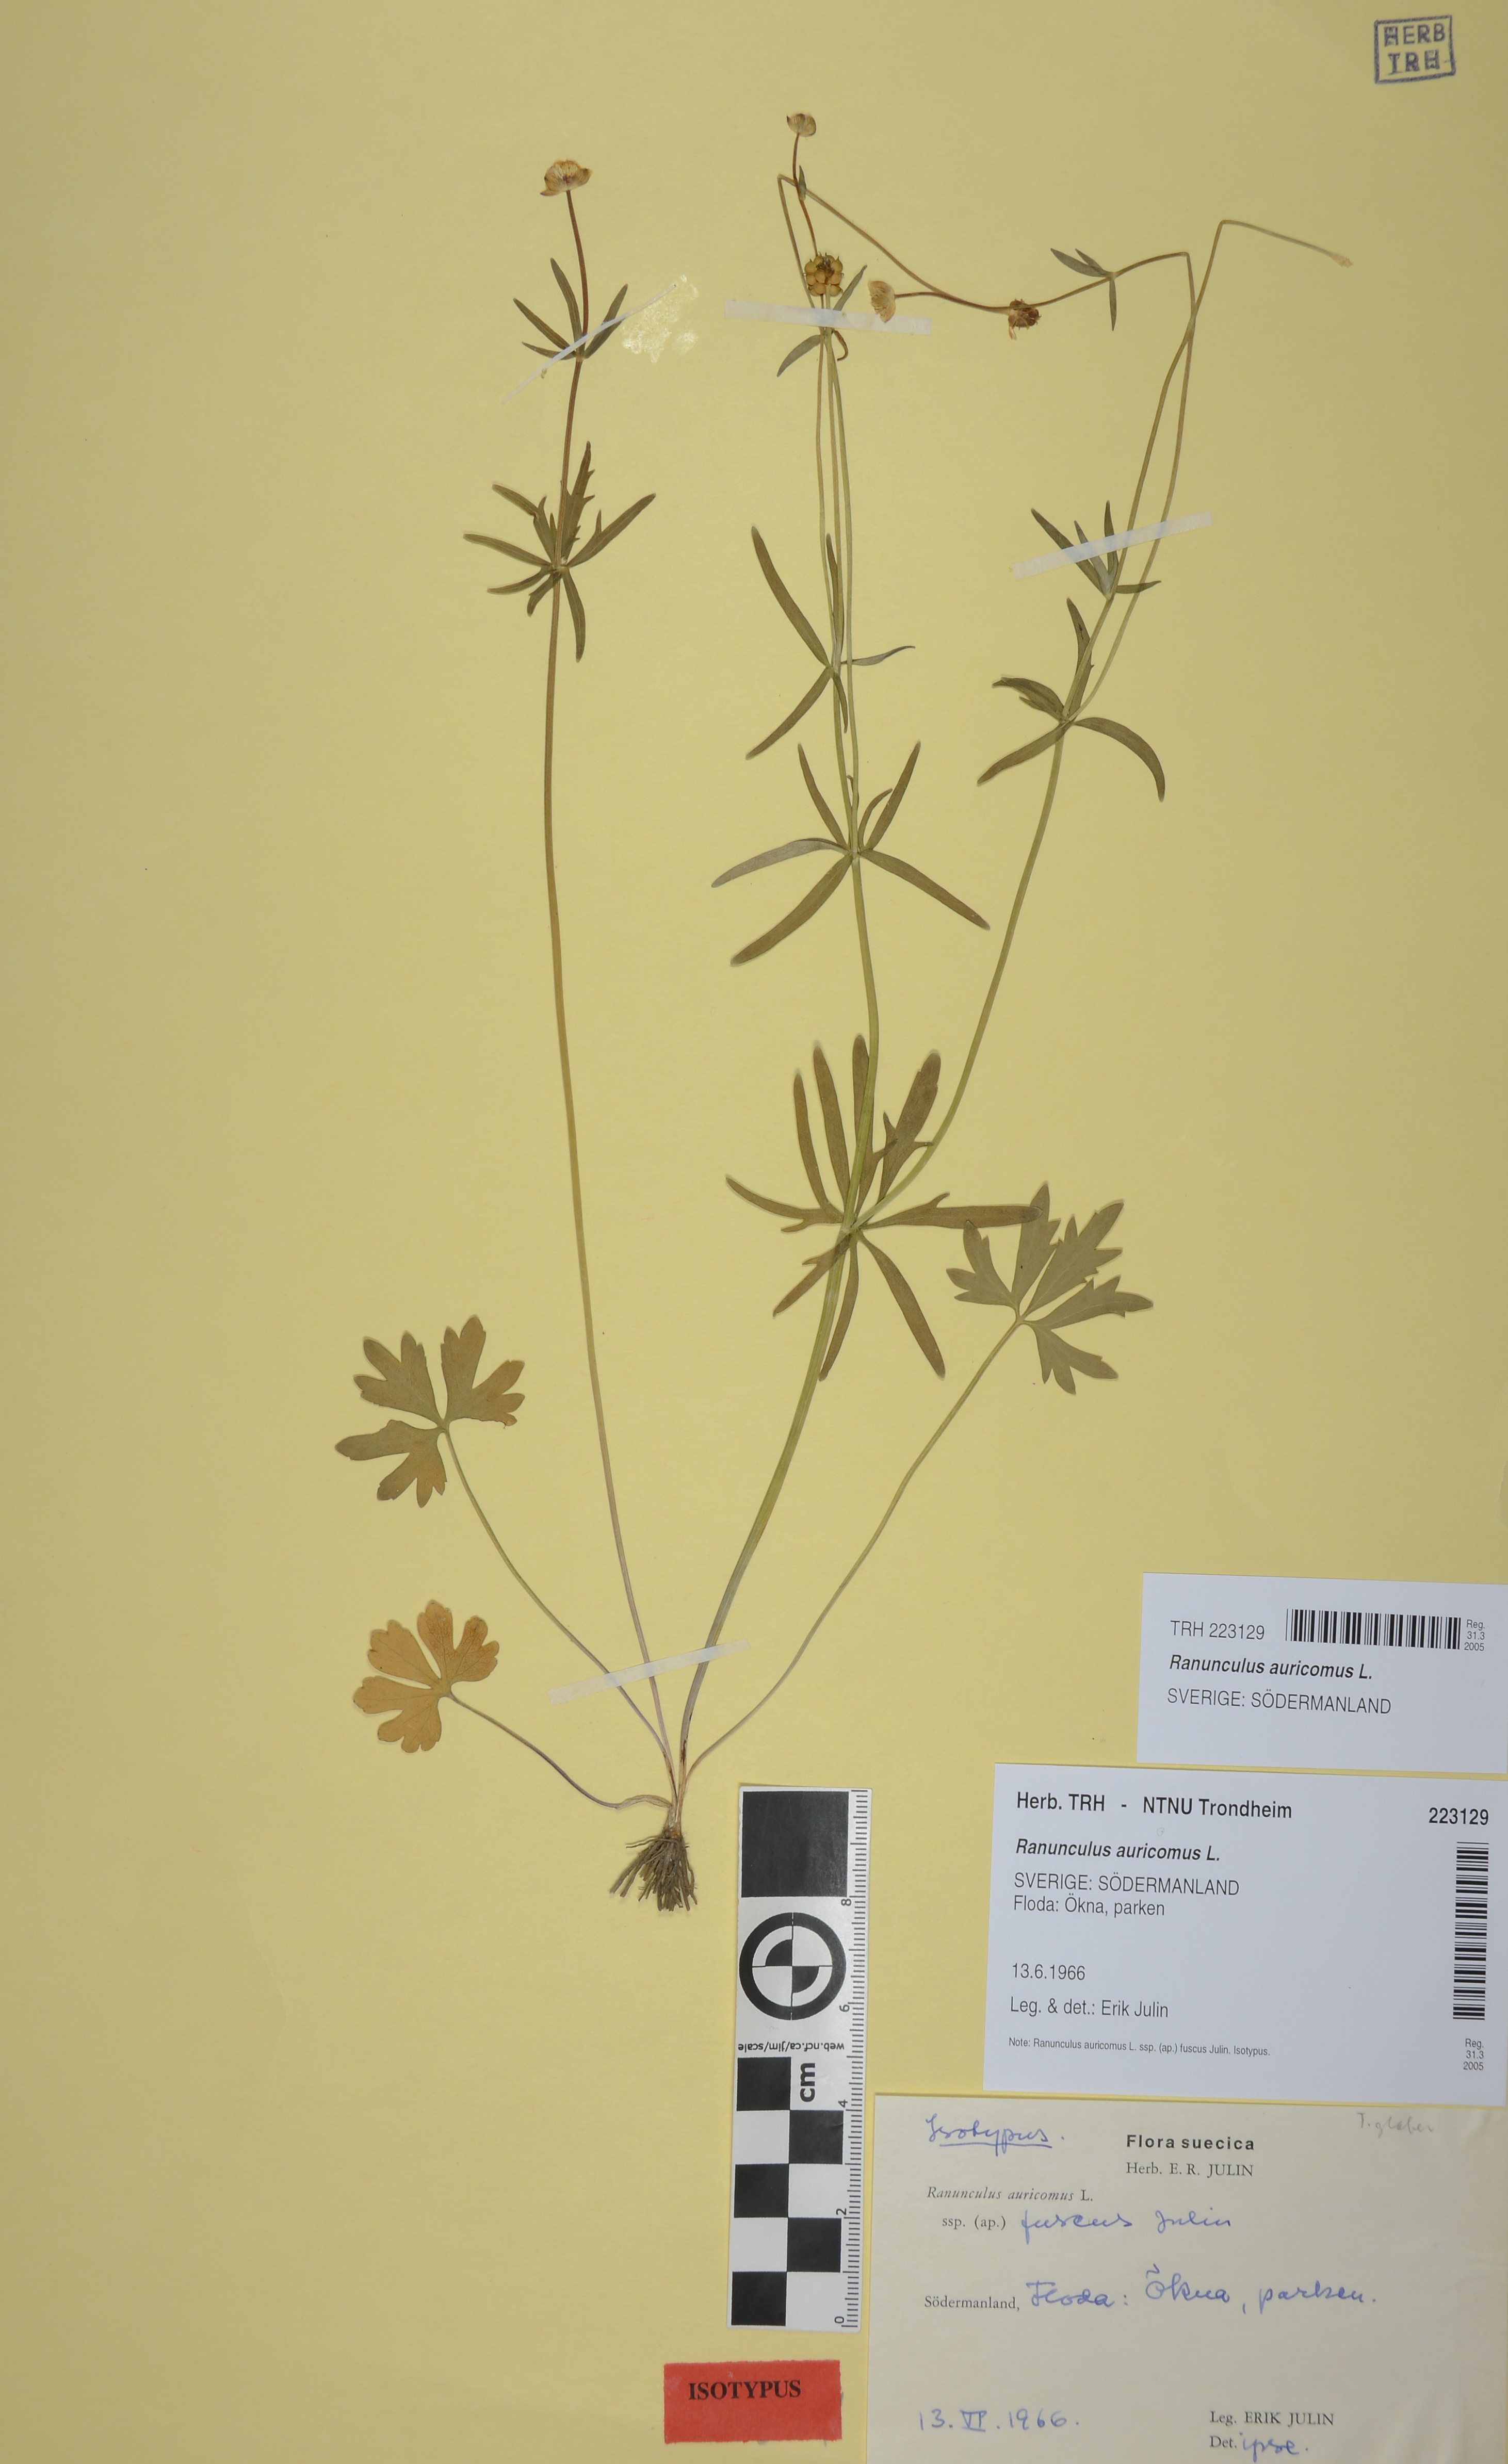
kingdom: Plantae
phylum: Tracheophyta
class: Magnoliopsida
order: Ranunculales
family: Ranunculaceae
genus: Ranunculus
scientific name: Ranunculus auricomus
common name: Goldilocks buttercup
